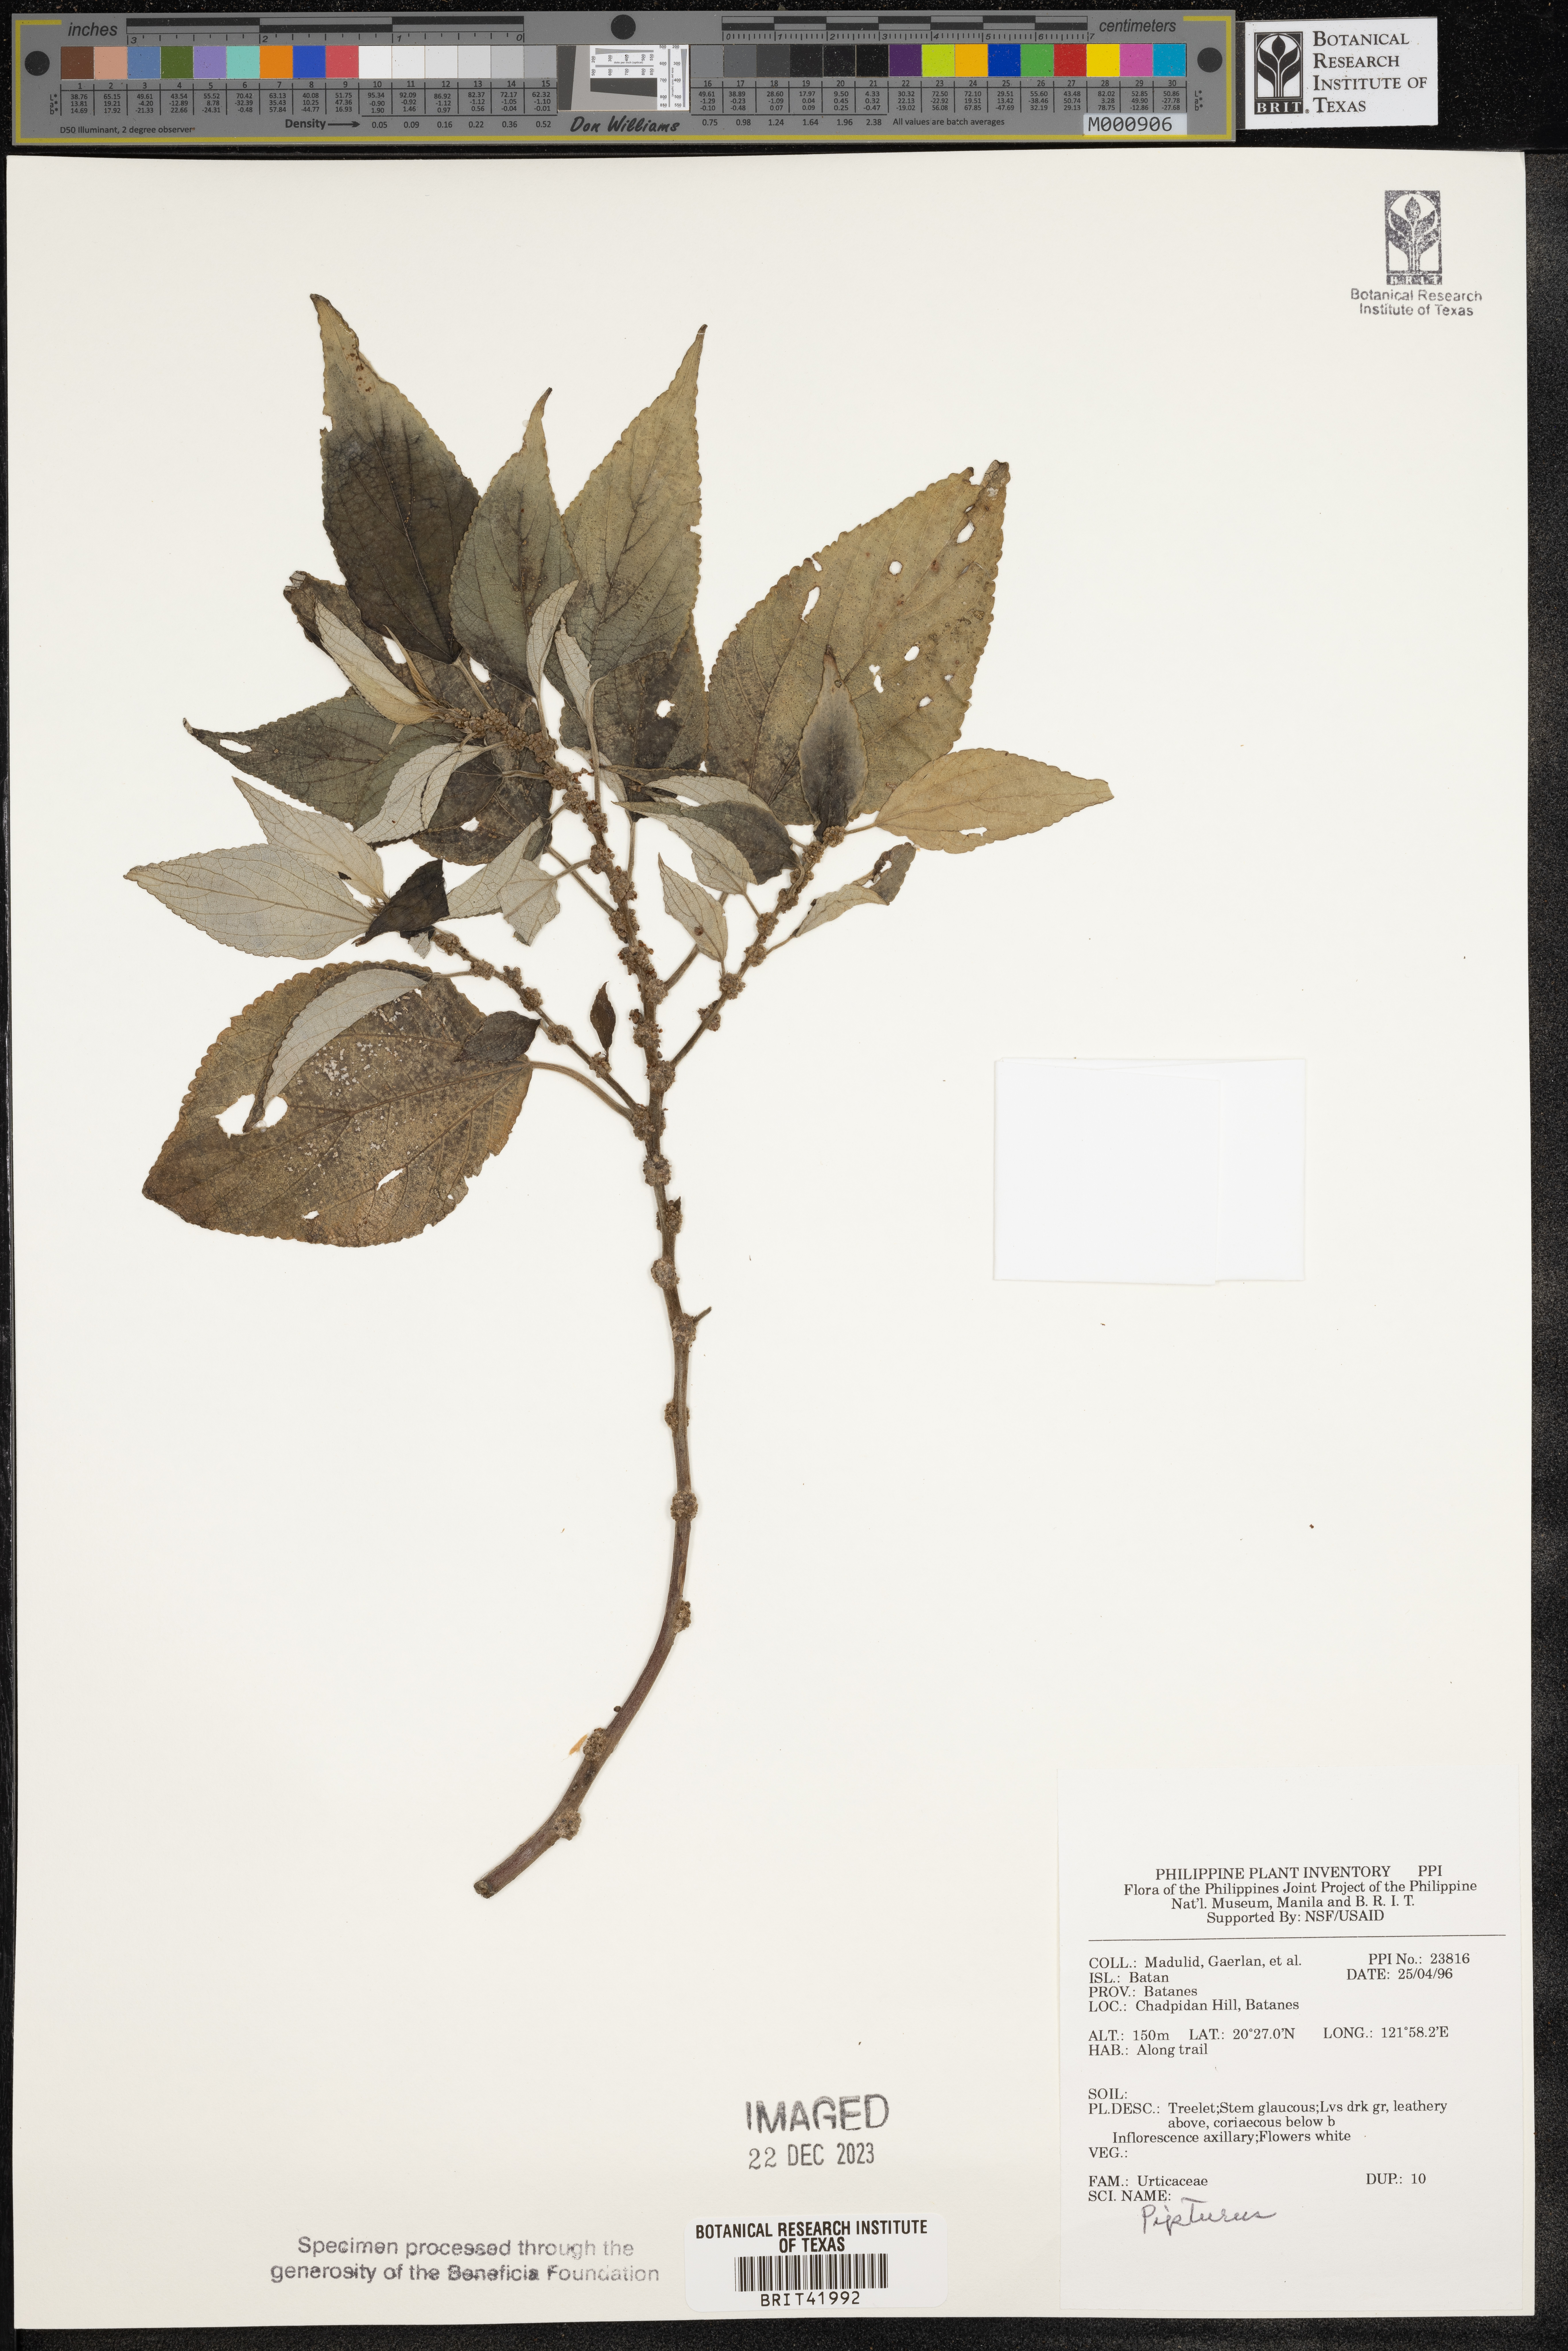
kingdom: Plantae
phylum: Tracheophyta
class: Magnoliopsida
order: Rosales
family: Urticaceae
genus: Pipturus
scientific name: Pipturus
